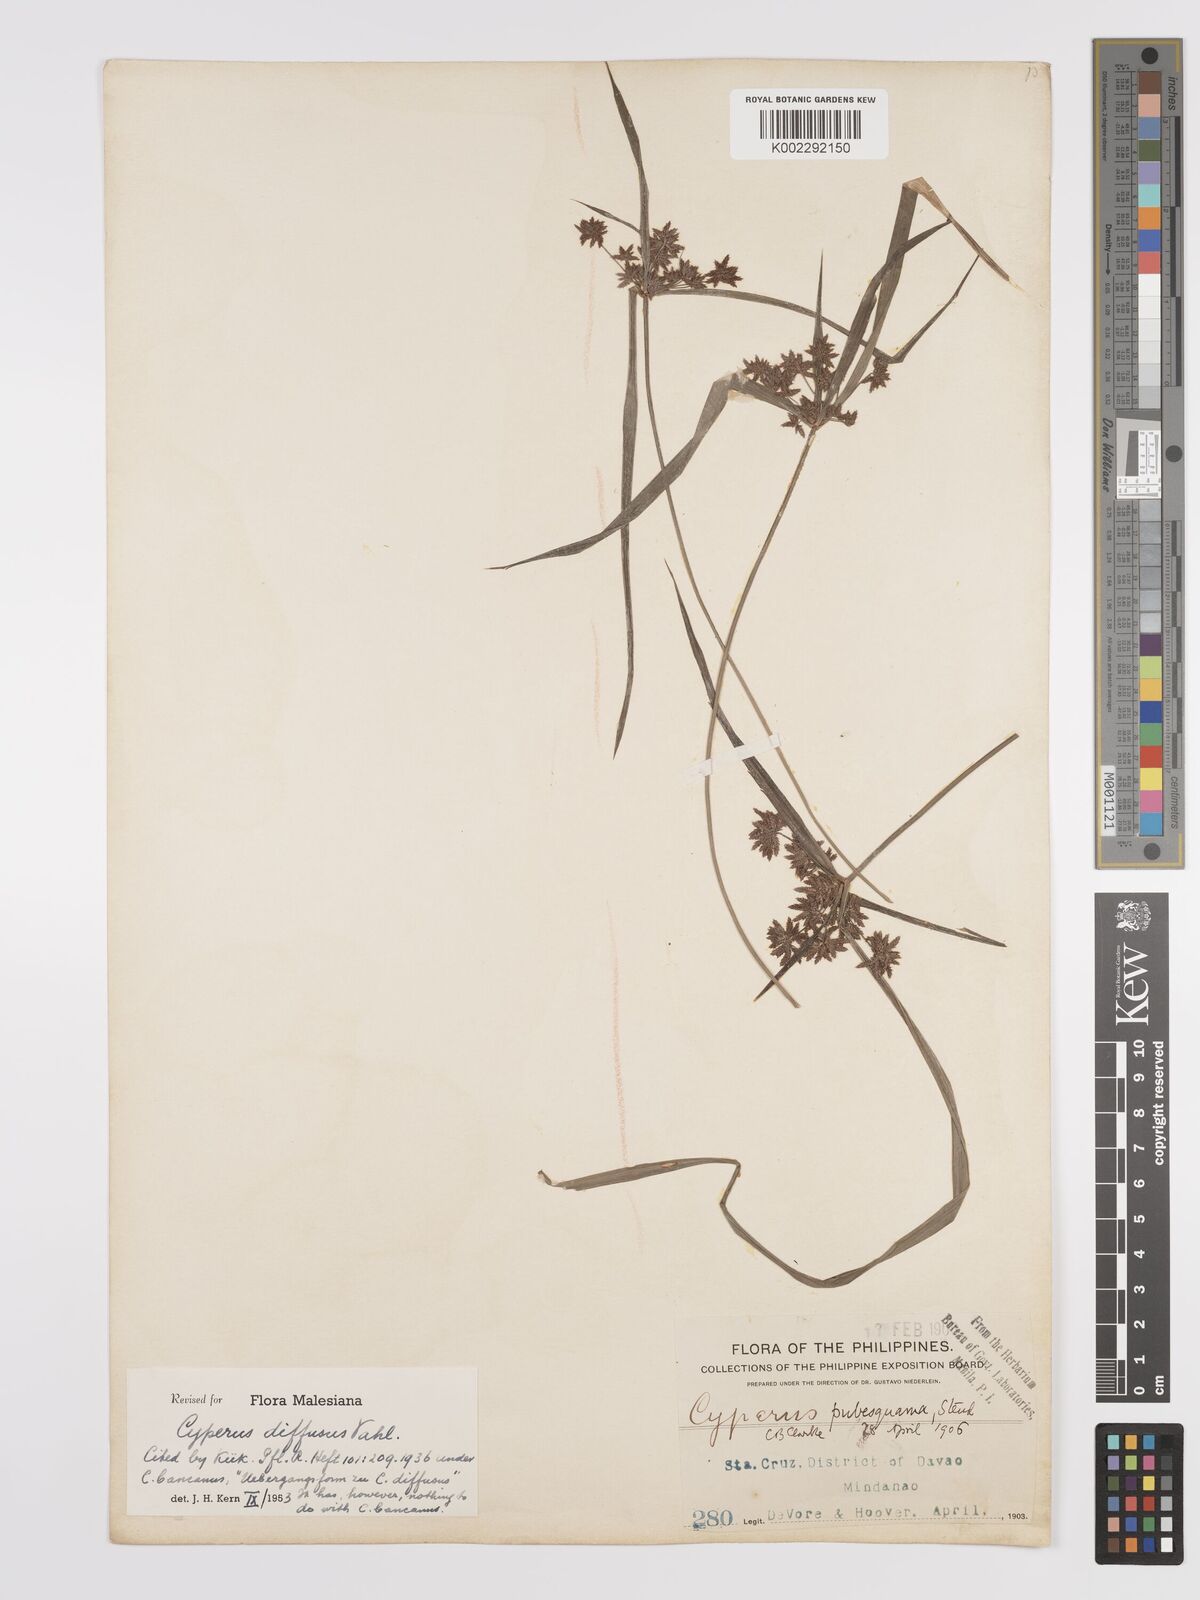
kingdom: Plantae
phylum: Tracheophyta
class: Liliopsida
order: Poales
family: Cyperaceae
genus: Cyperus
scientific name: Cyperus diffusus
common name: Dwarf umbrella grass
